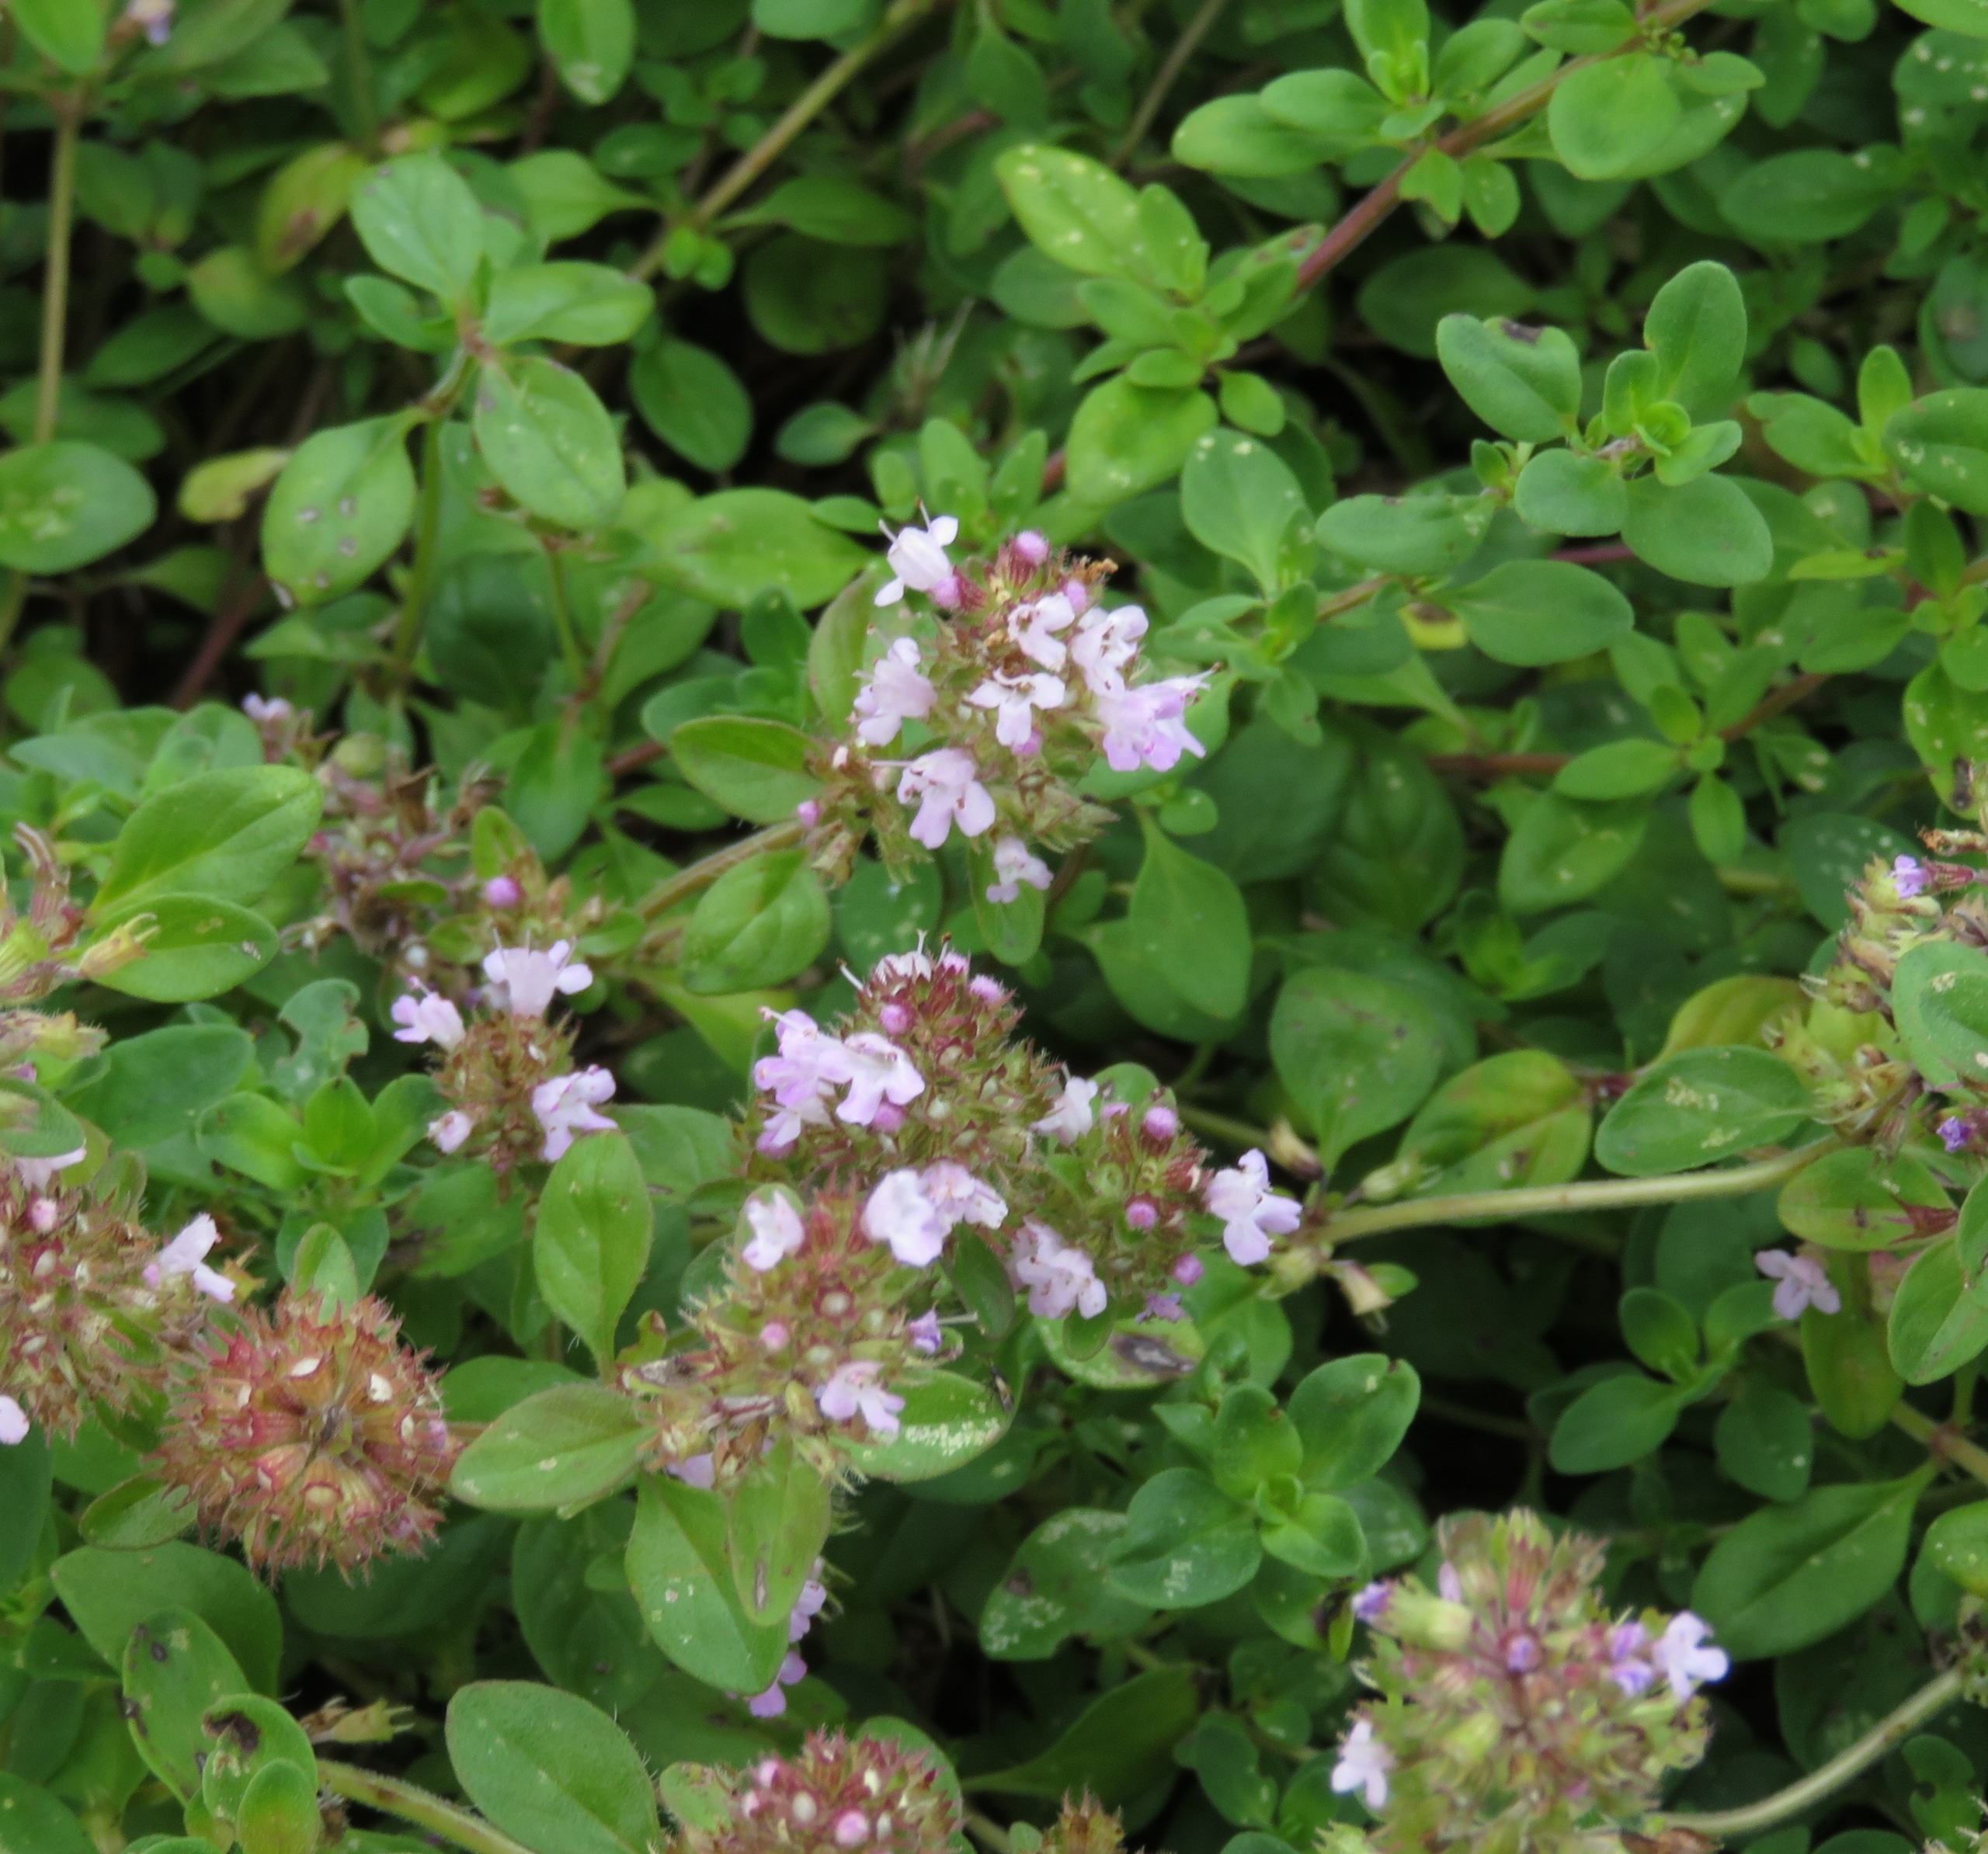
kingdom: Plantae
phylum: Tracheophyta
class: Magnoliopsida
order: Lamiales
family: Lamiaceae
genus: Thymus
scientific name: Thymus pulegioides
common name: Bredbladet timian
